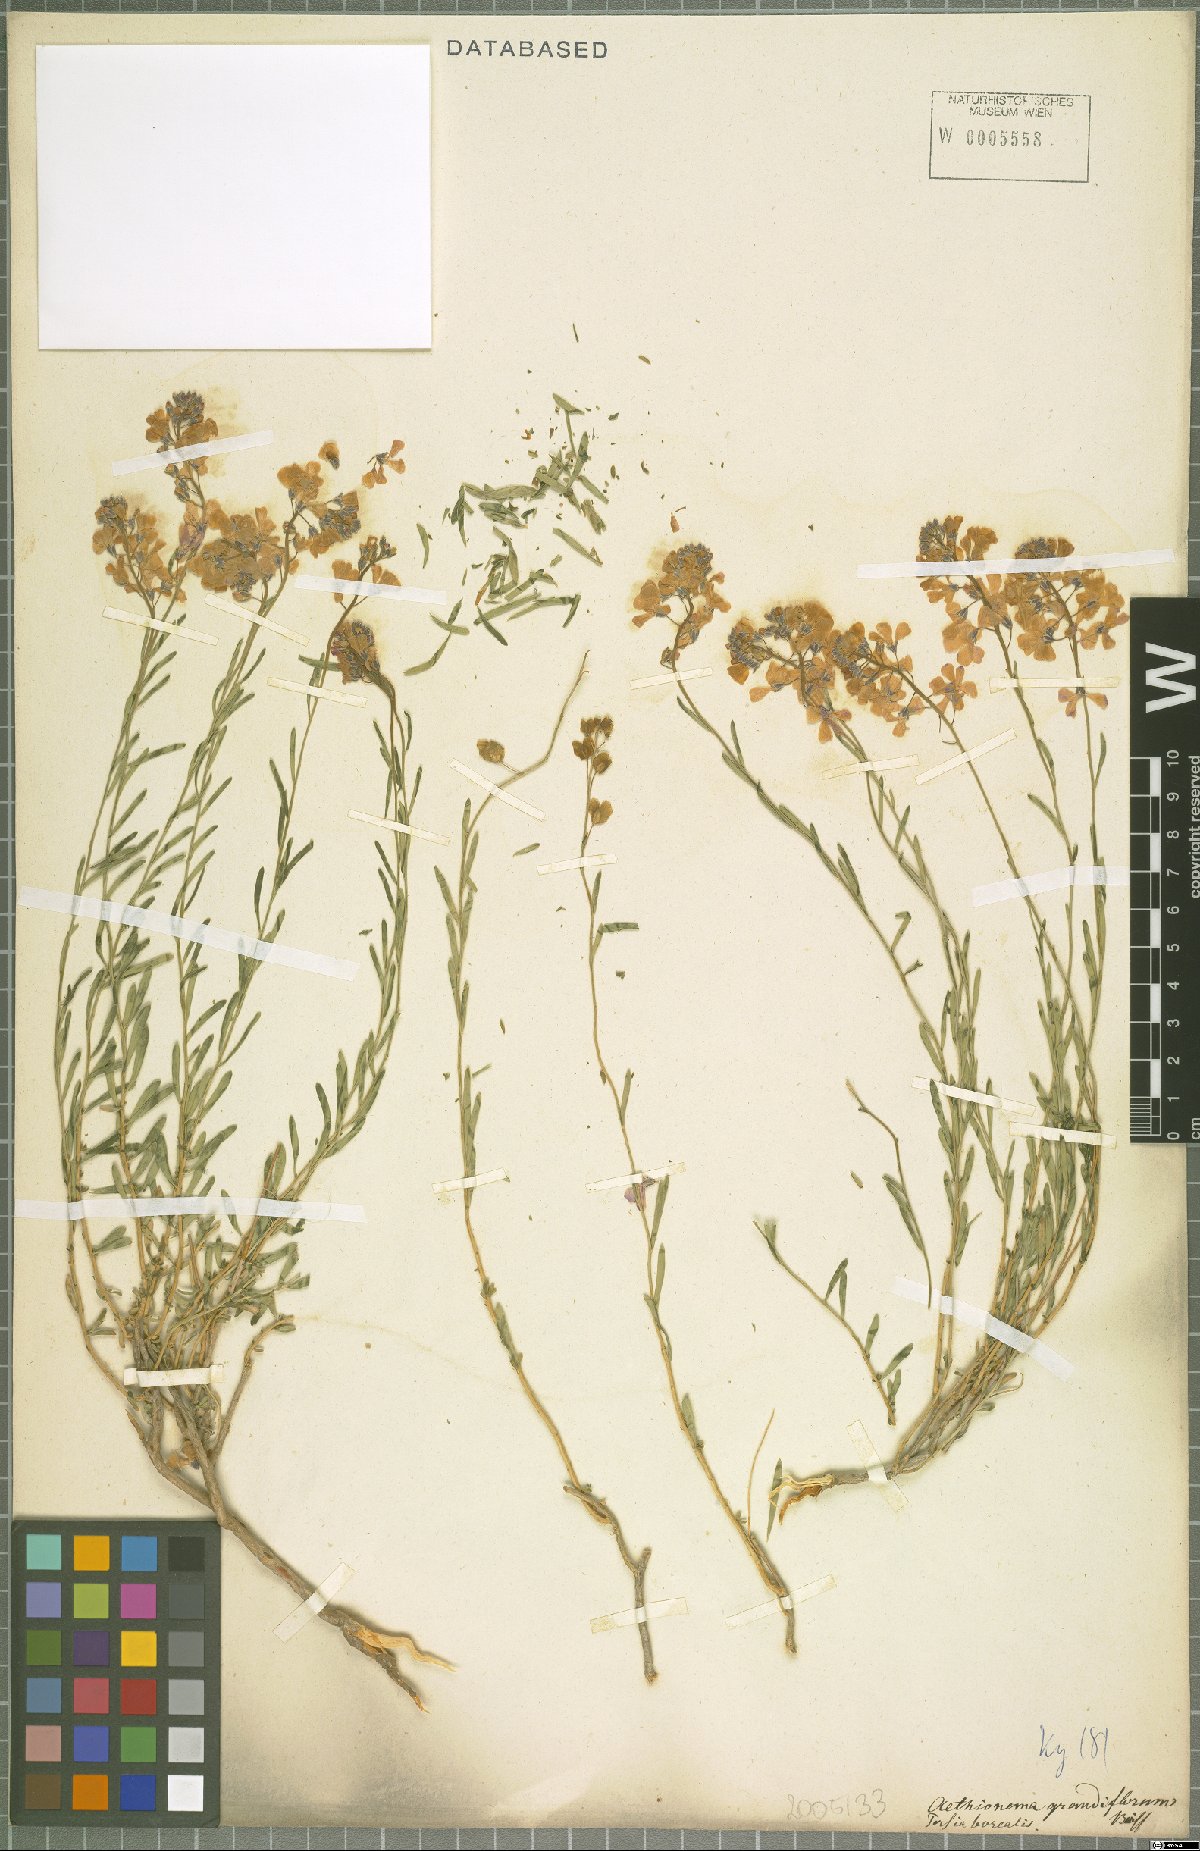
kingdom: Plantae
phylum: Tracheophyta
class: Magnoliopsida
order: Brassicales
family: Brassicaceae
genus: Aethionema
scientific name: Aethionema grandiflorum
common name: Persian stonecress
